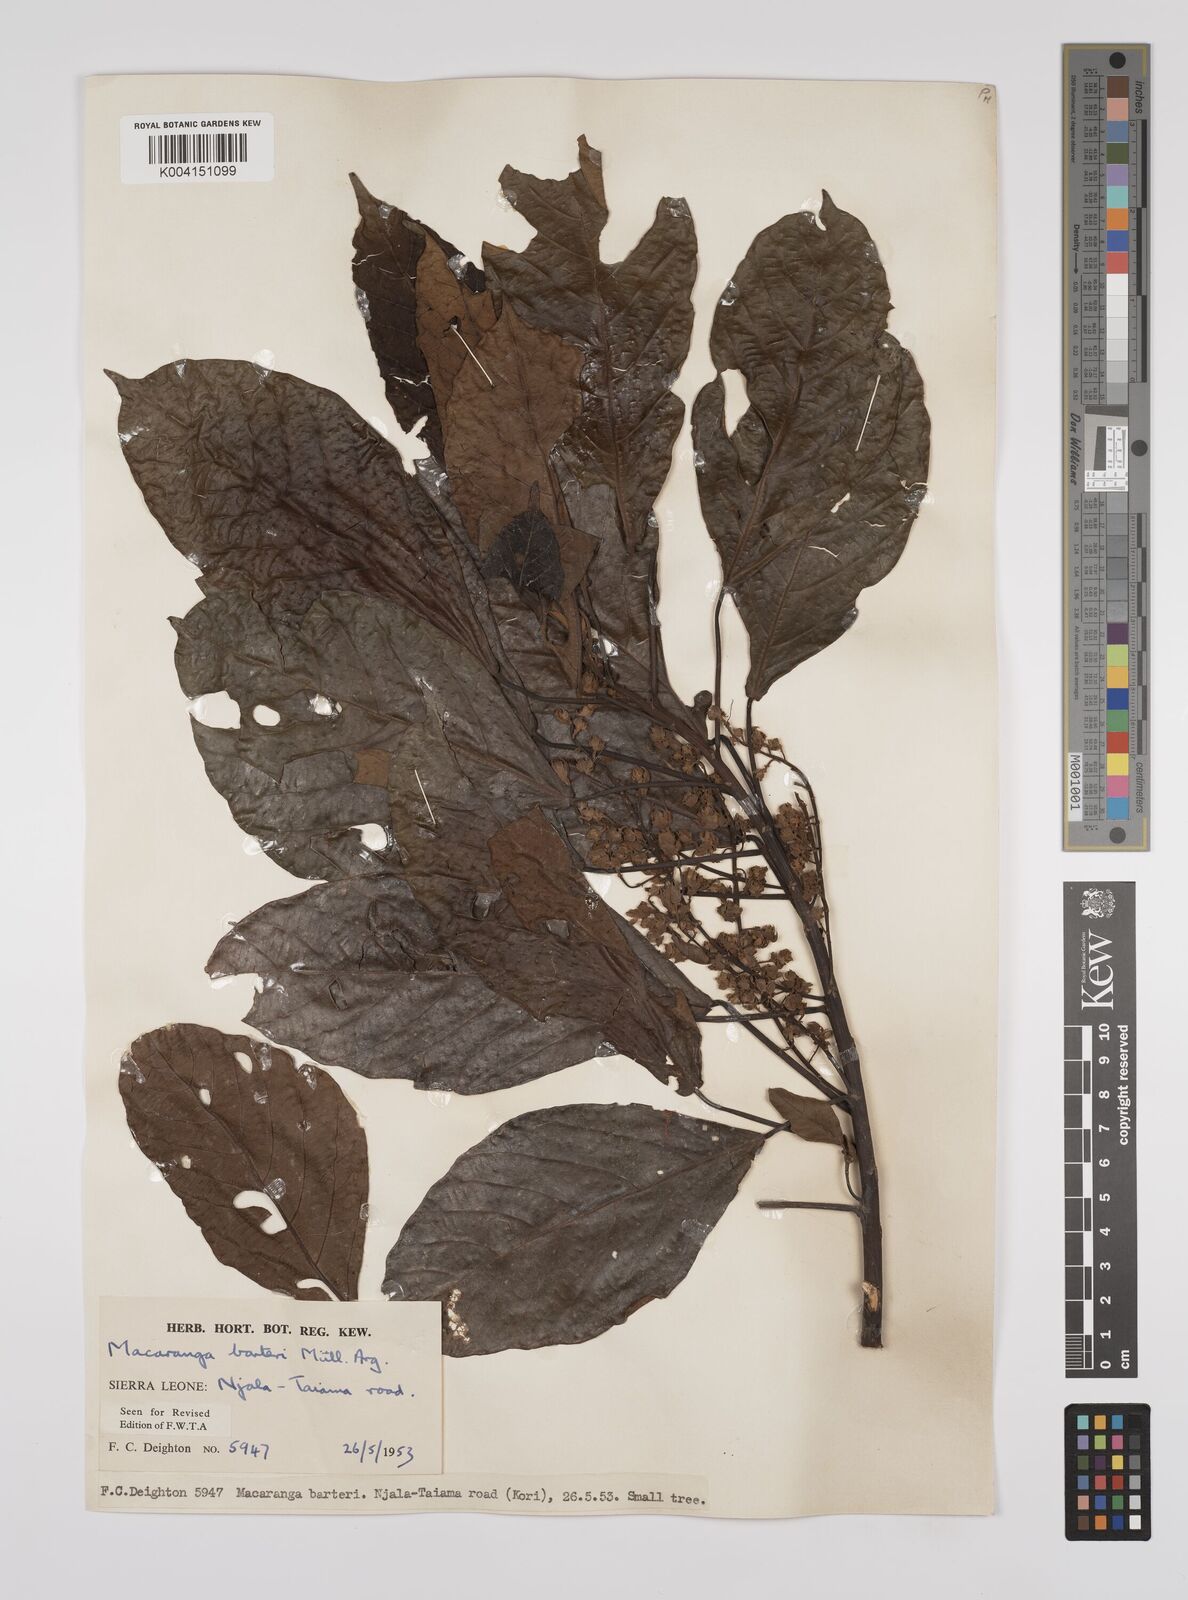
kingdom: Plantae
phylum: Tracheophyta
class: Magnoliopsida
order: Malpighiales
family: Euphorbiaceae
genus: Macaranga
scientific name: Macaranga barteri
